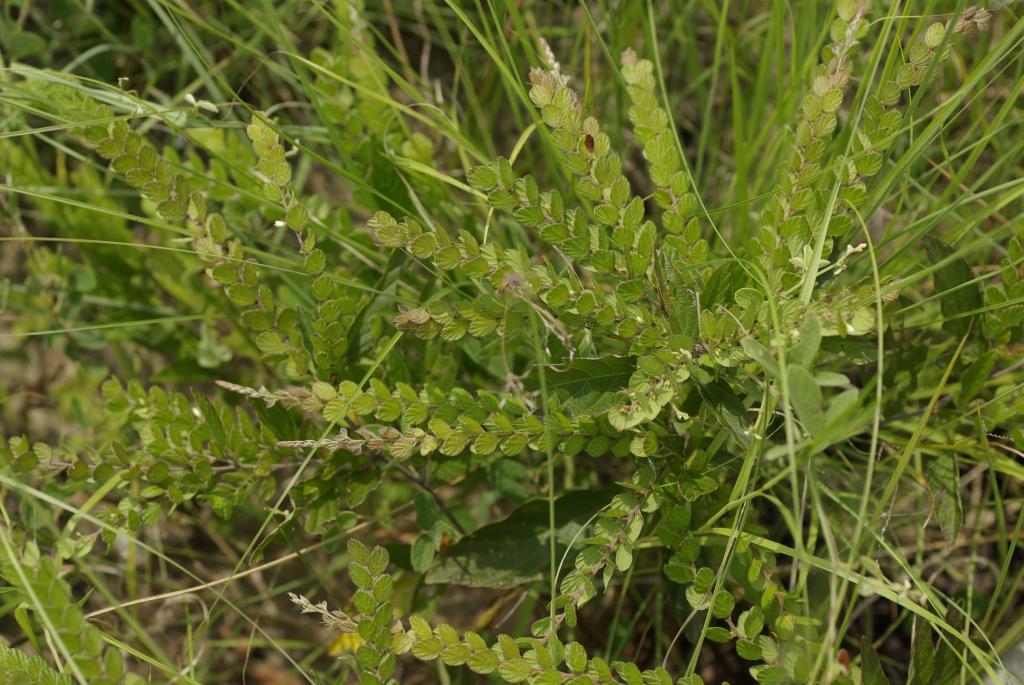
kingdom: Plantae
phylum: Tracheophyta
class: Magnoliopsida
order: Fabales
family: Fabaceae
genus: Phyllodium
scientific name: Phyllodium pulchellum
